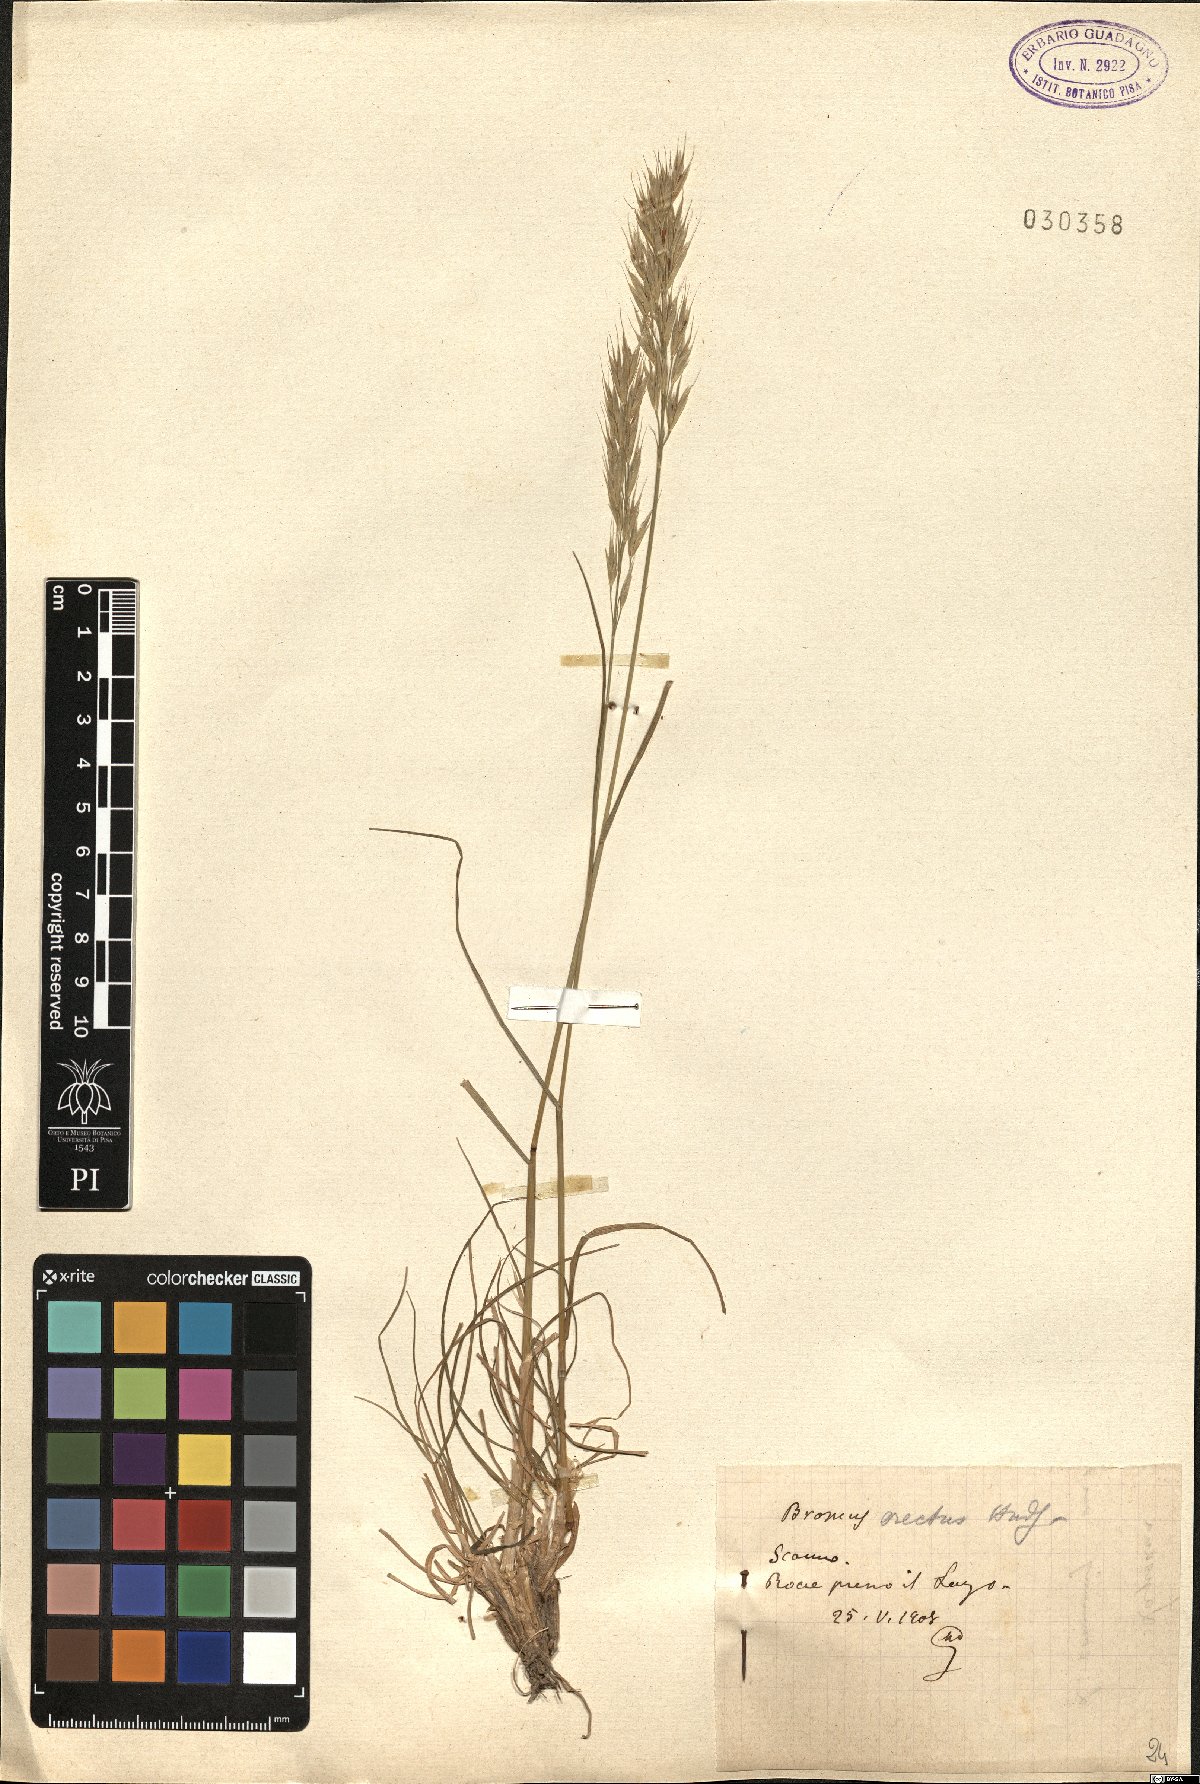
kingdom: Plantae
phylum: Tracheophyta
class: Liliopsida
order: Poales
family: Poaceae
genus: Bromus
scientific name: Bromus erectus
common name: Erect brome
